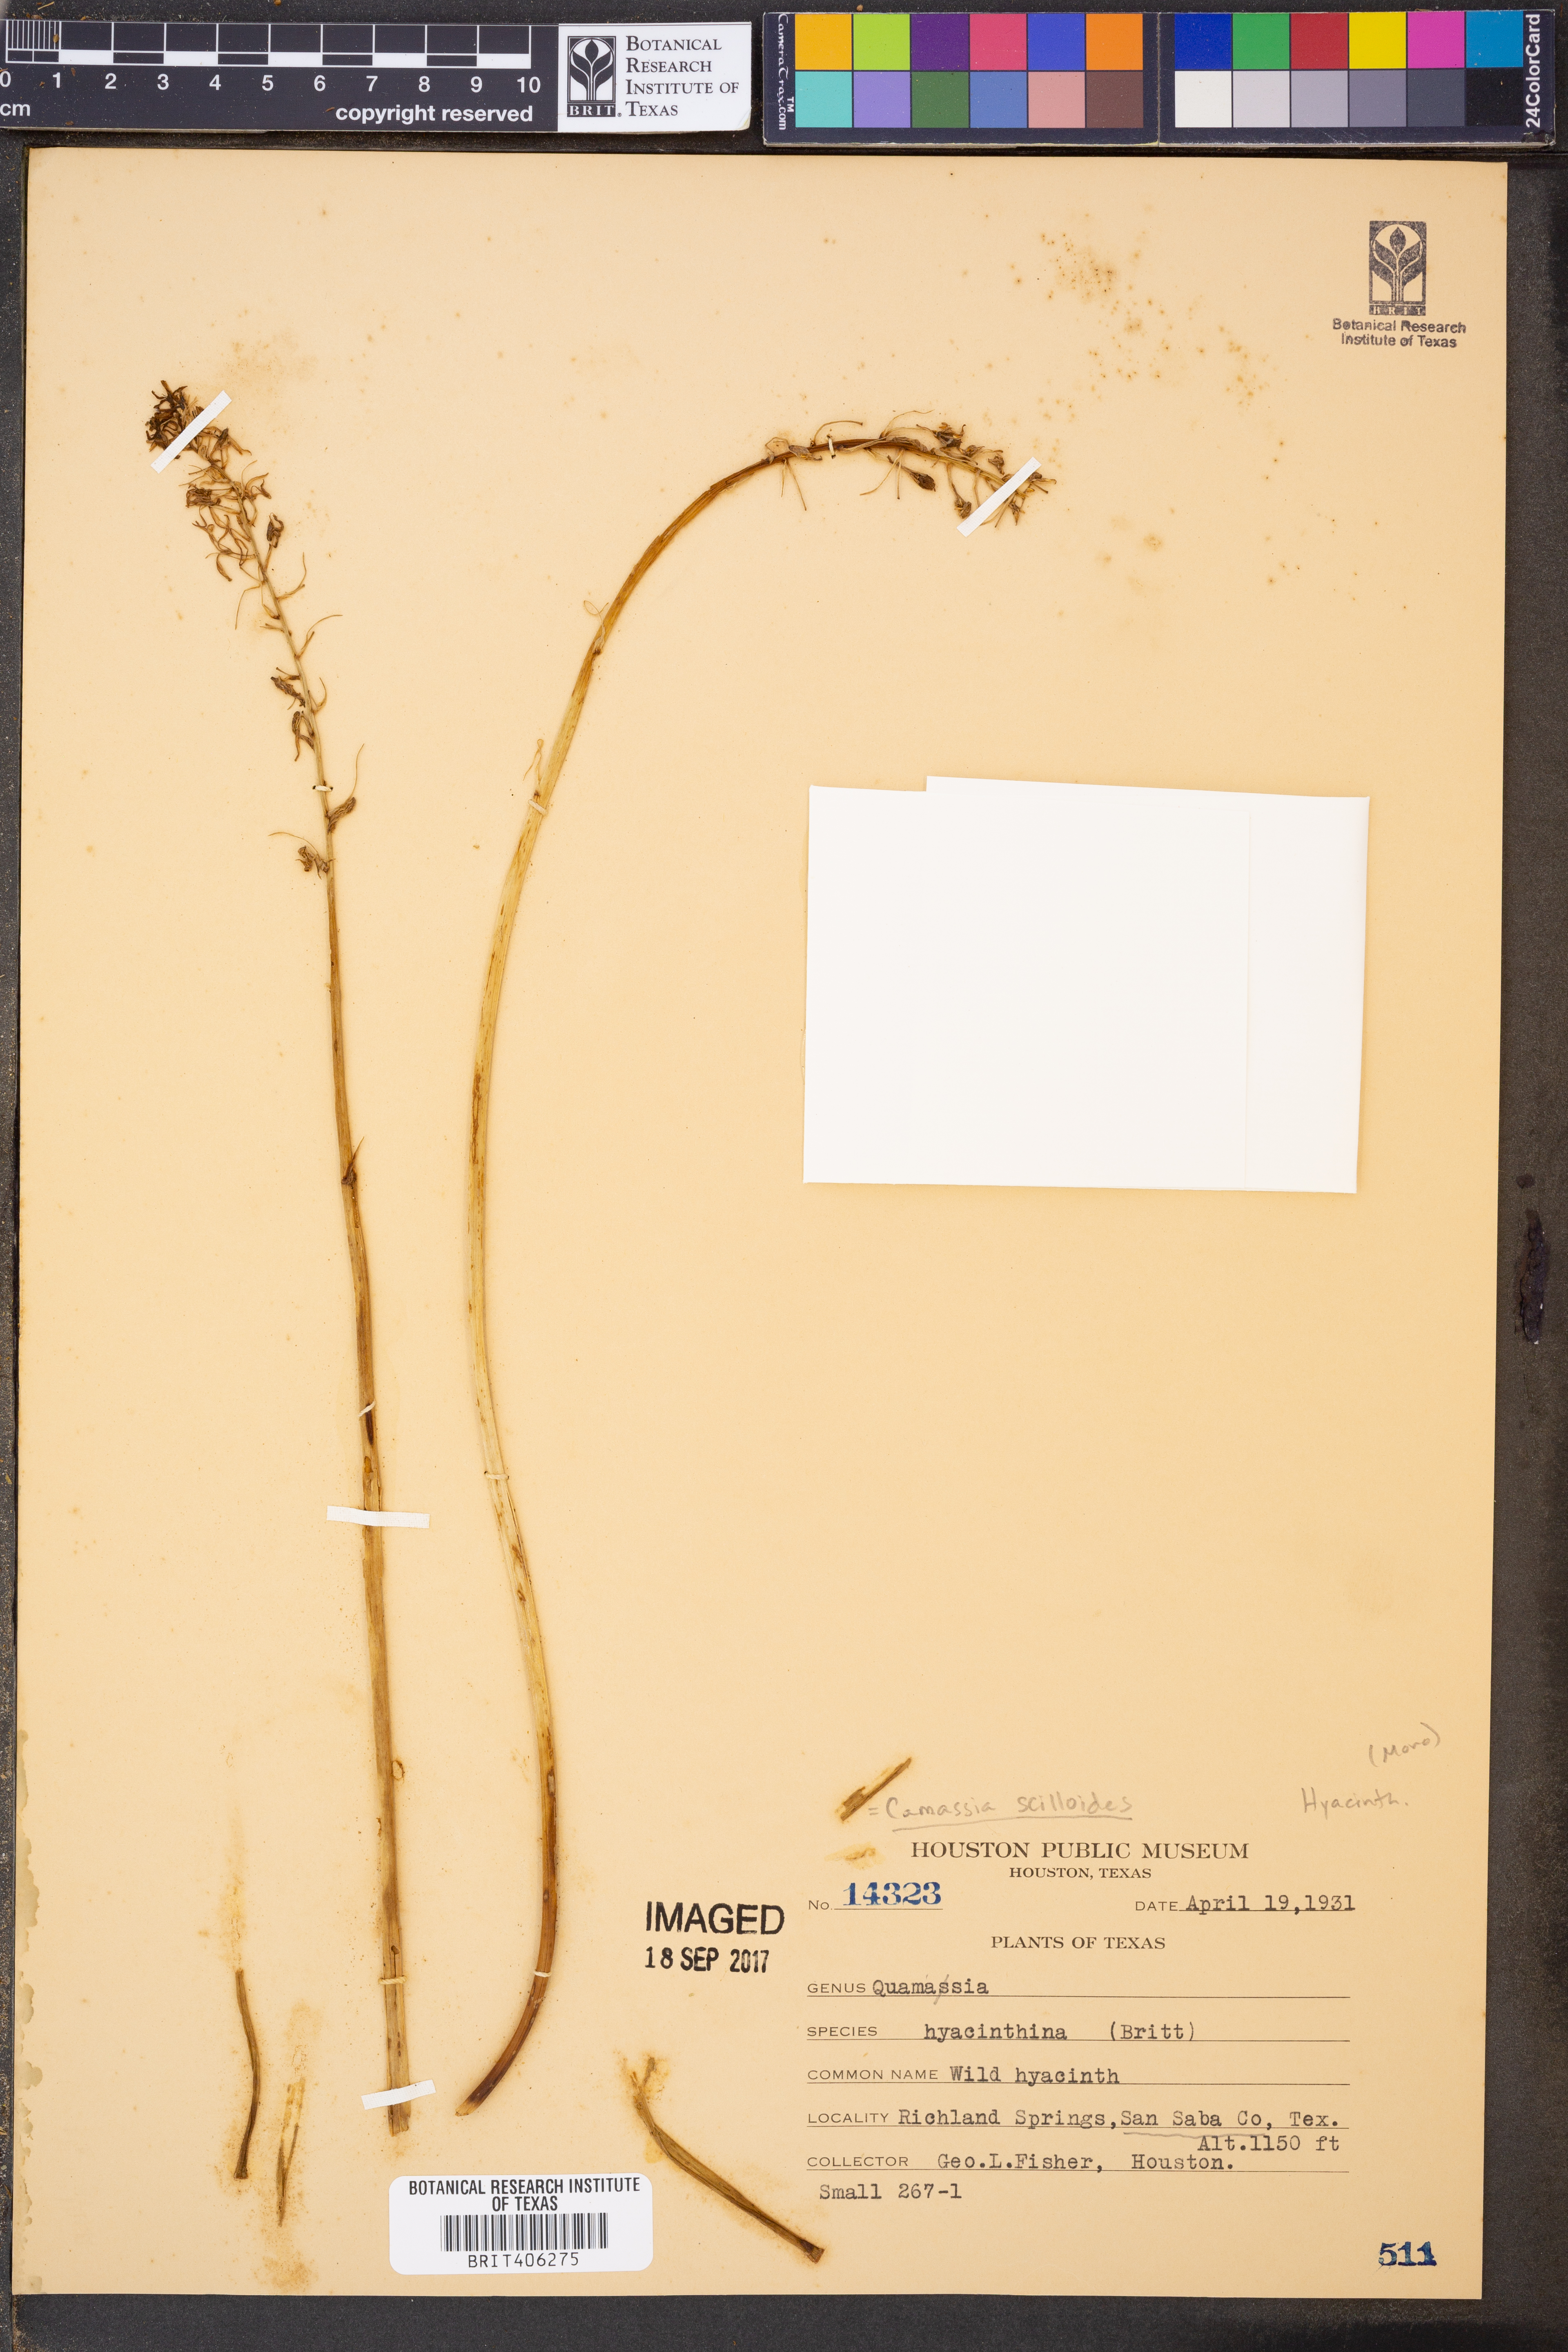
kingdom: Plantae
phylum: Tracheophyta
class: Liliopsida
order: Asparagales
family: Asparagaceae
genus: Camassia
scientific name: Camassia scilloides
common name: Wild hyacinth
